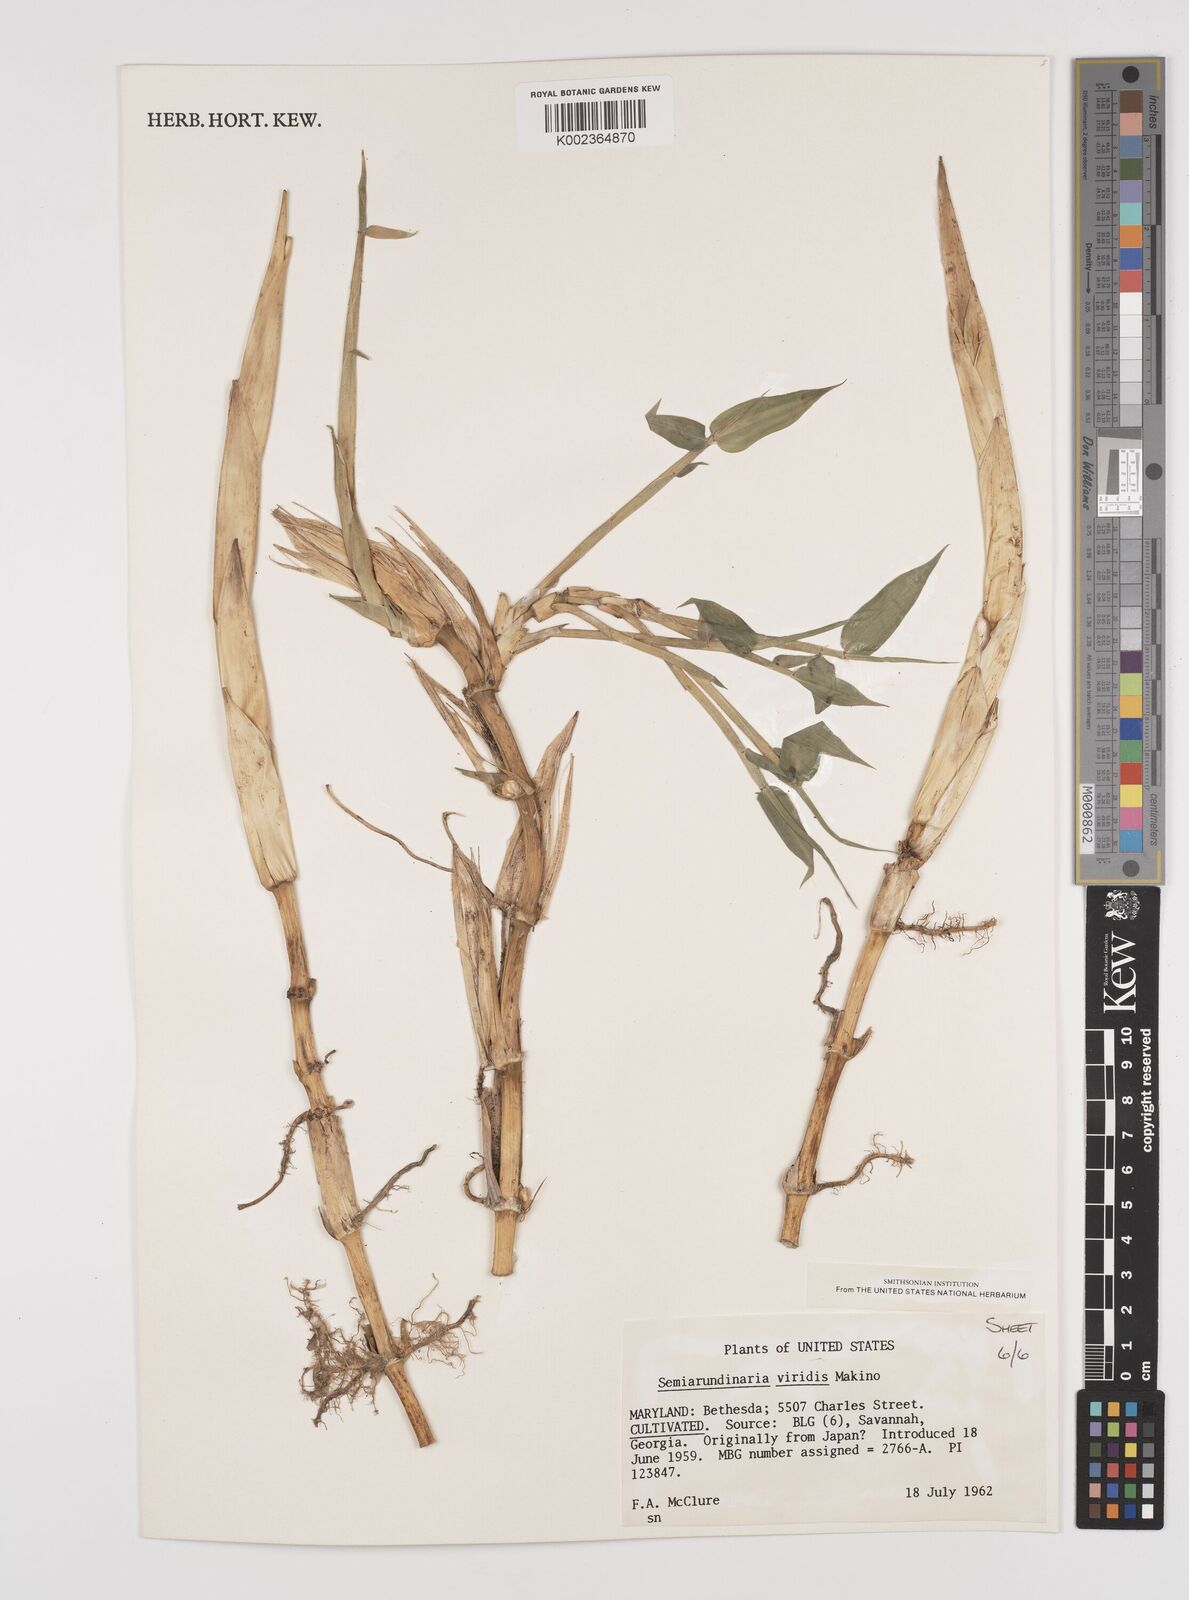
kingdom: Plantae
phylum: Tracheophyta
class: Liliopsida
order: Poales
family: Poaceae
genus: Semiarundinaria
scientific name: Semiarundinaria fastuosa
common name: Narihira bamboo
